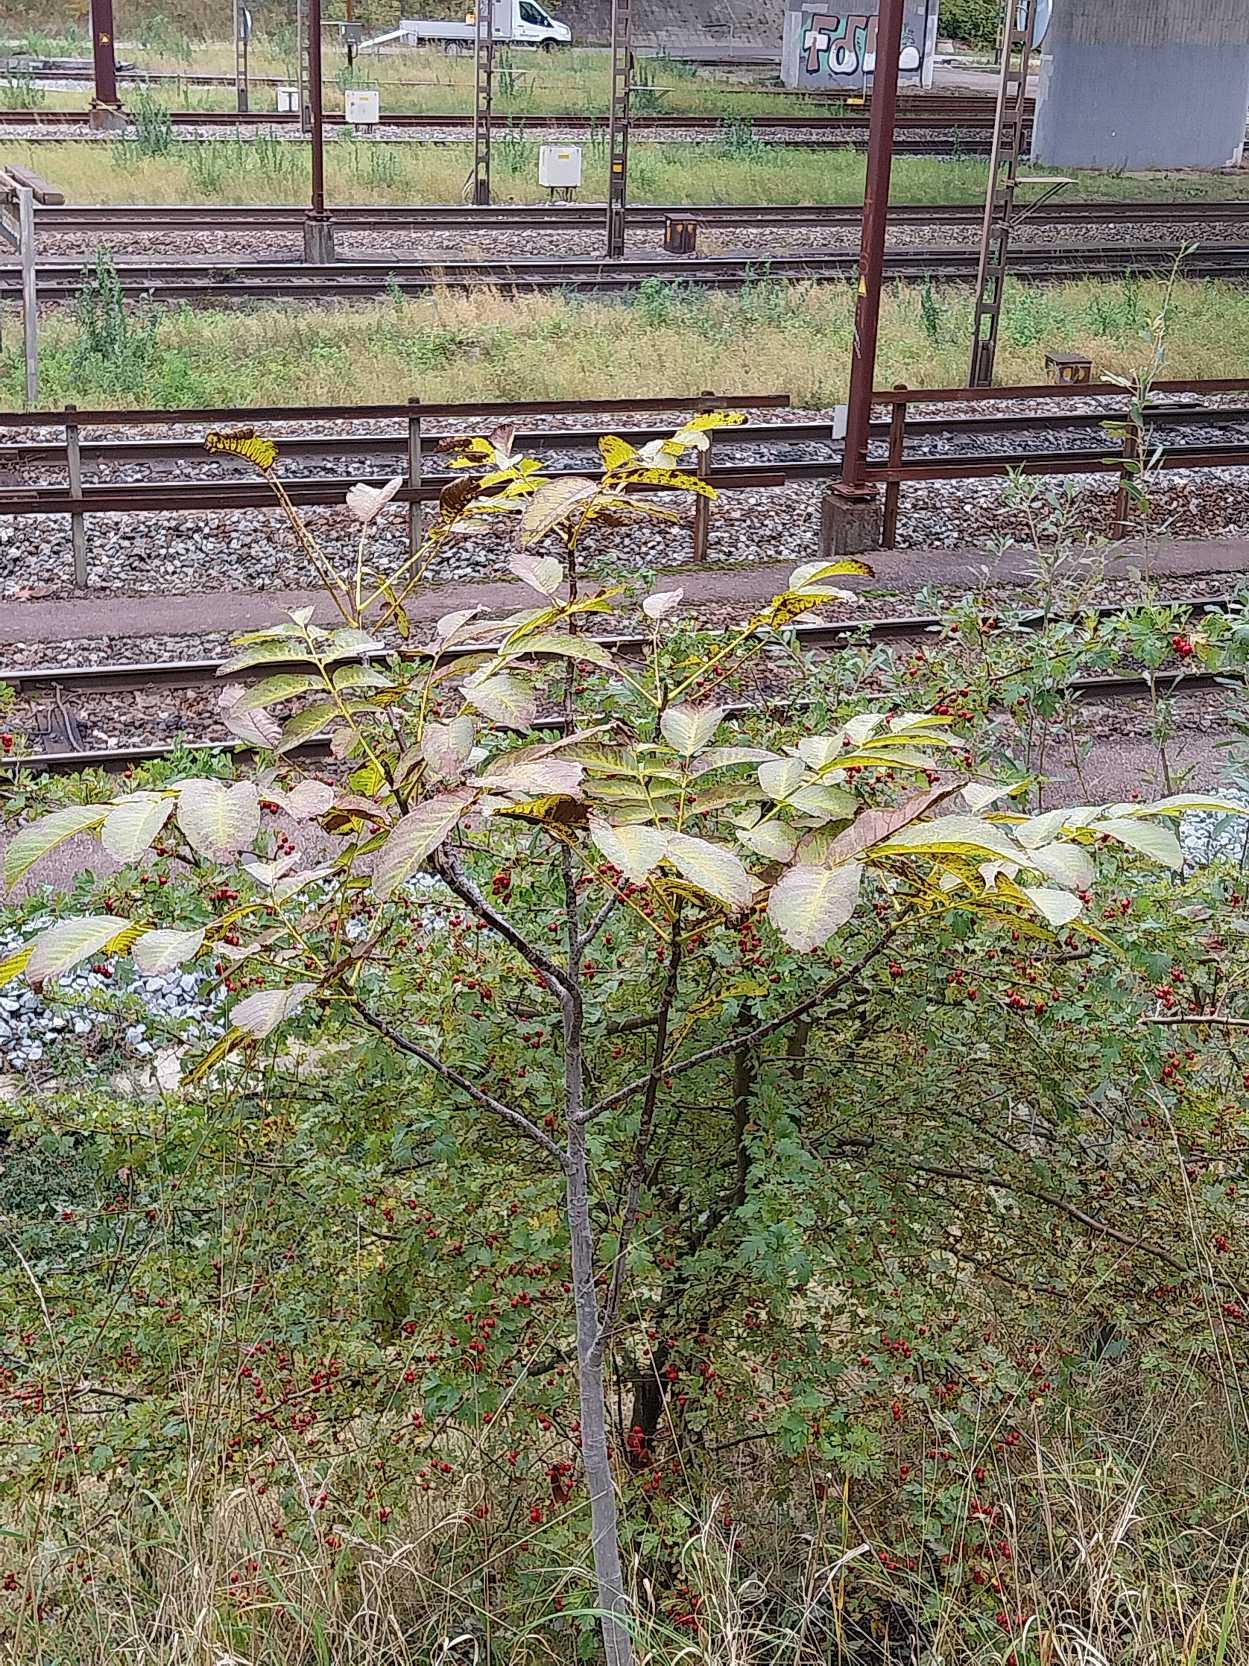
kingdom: Plantae
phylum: Tracheophyta
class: Magnoliopsida
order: Fagales
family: Juglandaceae
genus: Juglans
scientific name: Juglans regia
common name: Almindelig valnød
